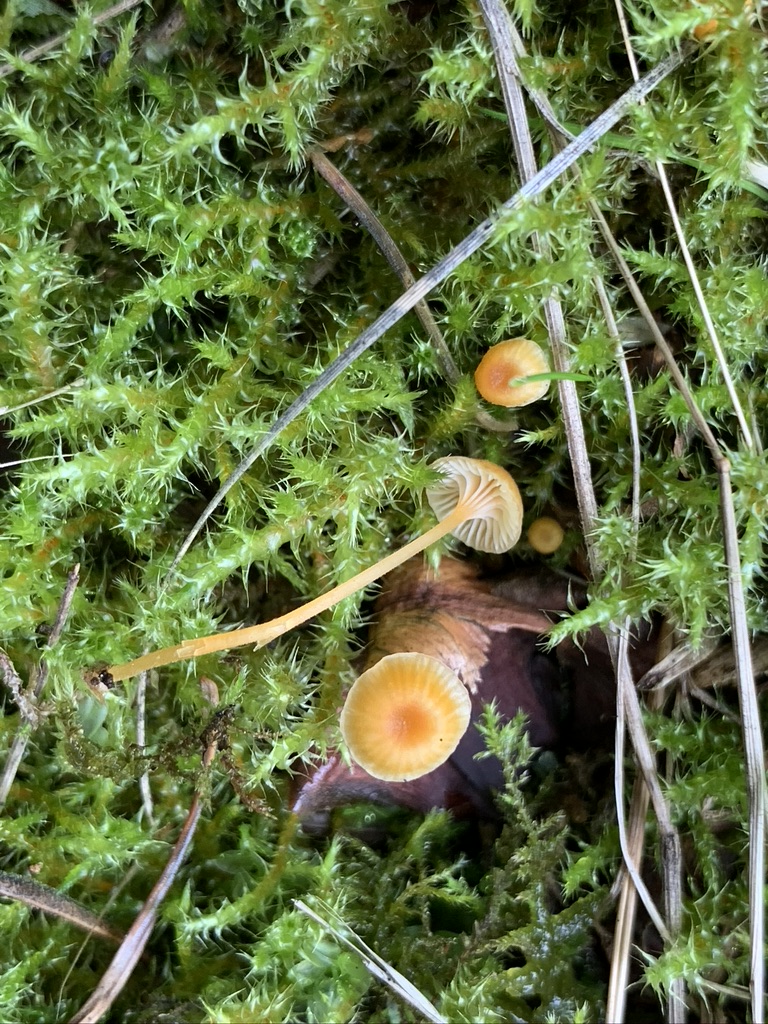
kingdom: Fungi
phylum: Basidiomycota
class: Agaricomycetes
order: Hymenochaetales
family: Rickenellaceae
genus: Rickenella
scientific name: Rickenella fibula
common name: orange mosnavlehat
